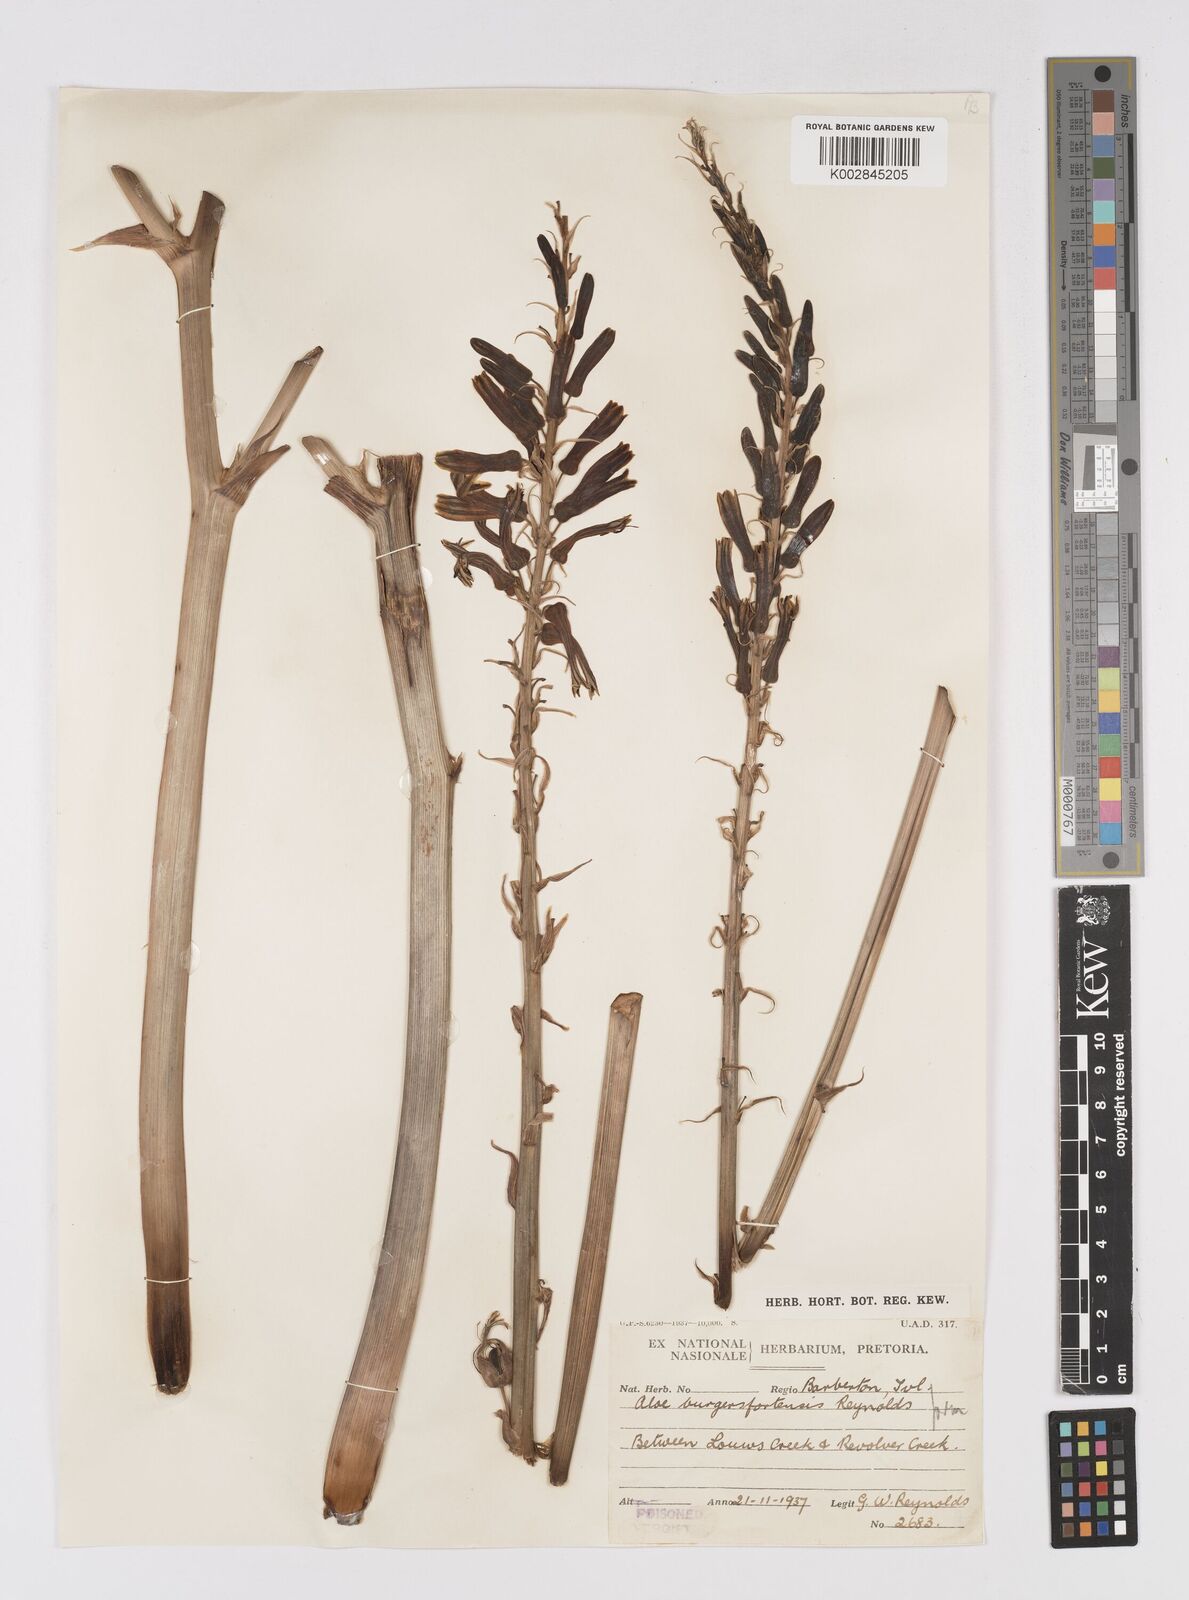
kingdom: Plantae
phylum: Tracheophyta
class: Liliopsida
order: Asparagales
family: Asphodelaceae
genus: Aloe
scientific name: Aloe burgersfortensis
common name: Burgersfort aloe
